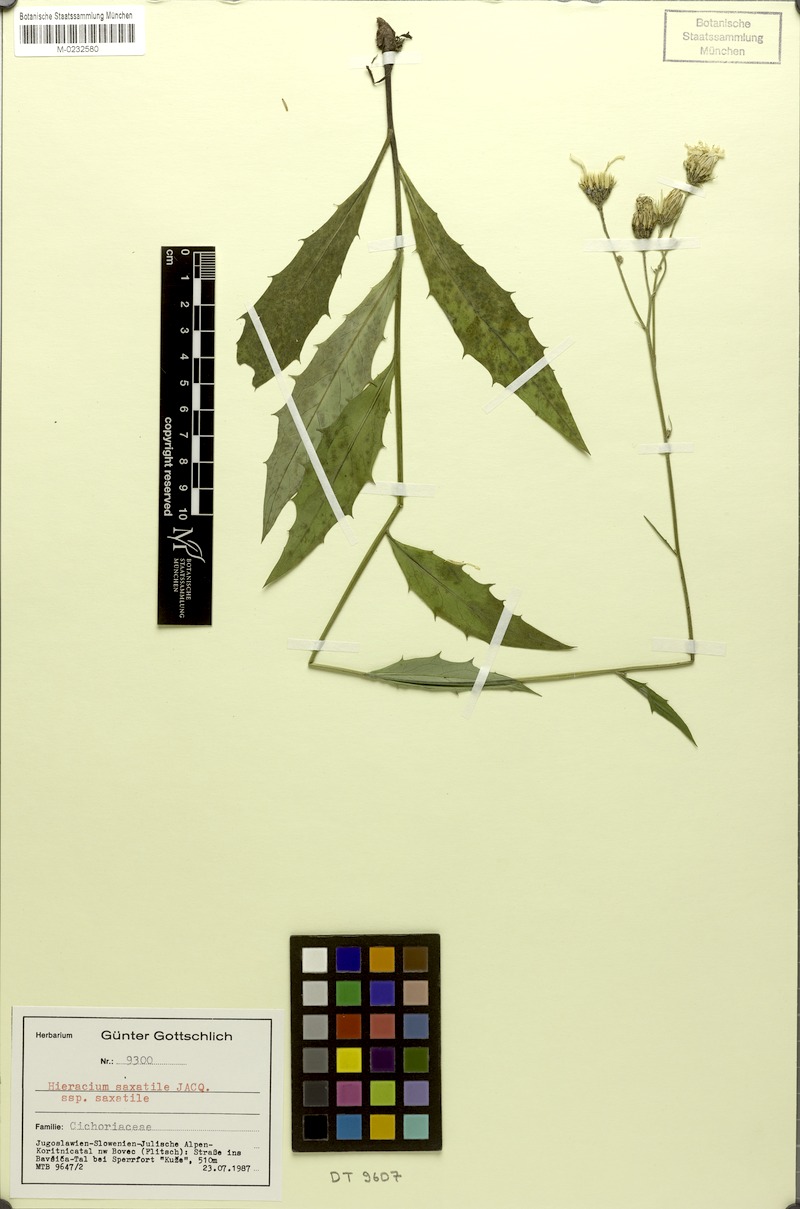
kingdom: Plantae
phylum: Tracheophyta
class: Magnoliopsida
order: Asterales
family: Asteraceae
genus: Hieracium
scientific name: Hieracium saxatile
